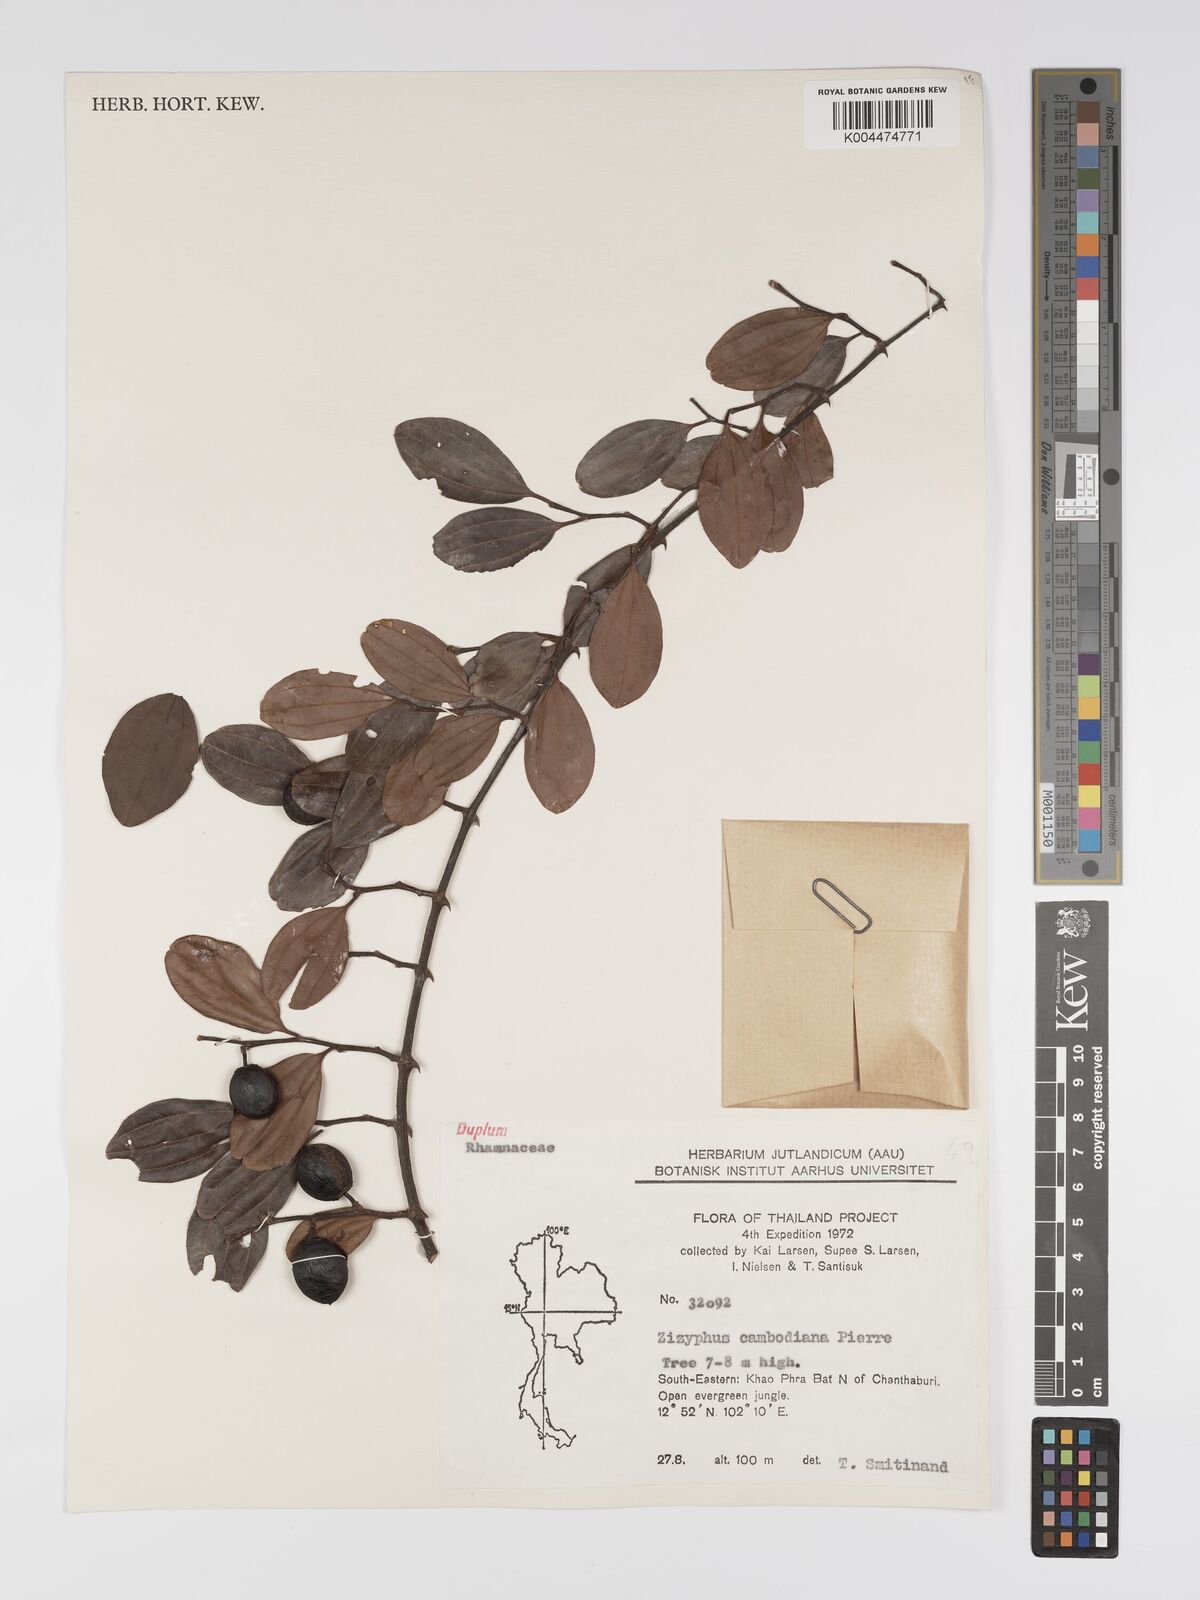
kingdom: Plantae
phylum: Tracheophyta
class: Magnoliopsida
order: Rosales
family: Rhamnaceae
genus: Ziziphus
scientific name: Ziziphus cambodiana
